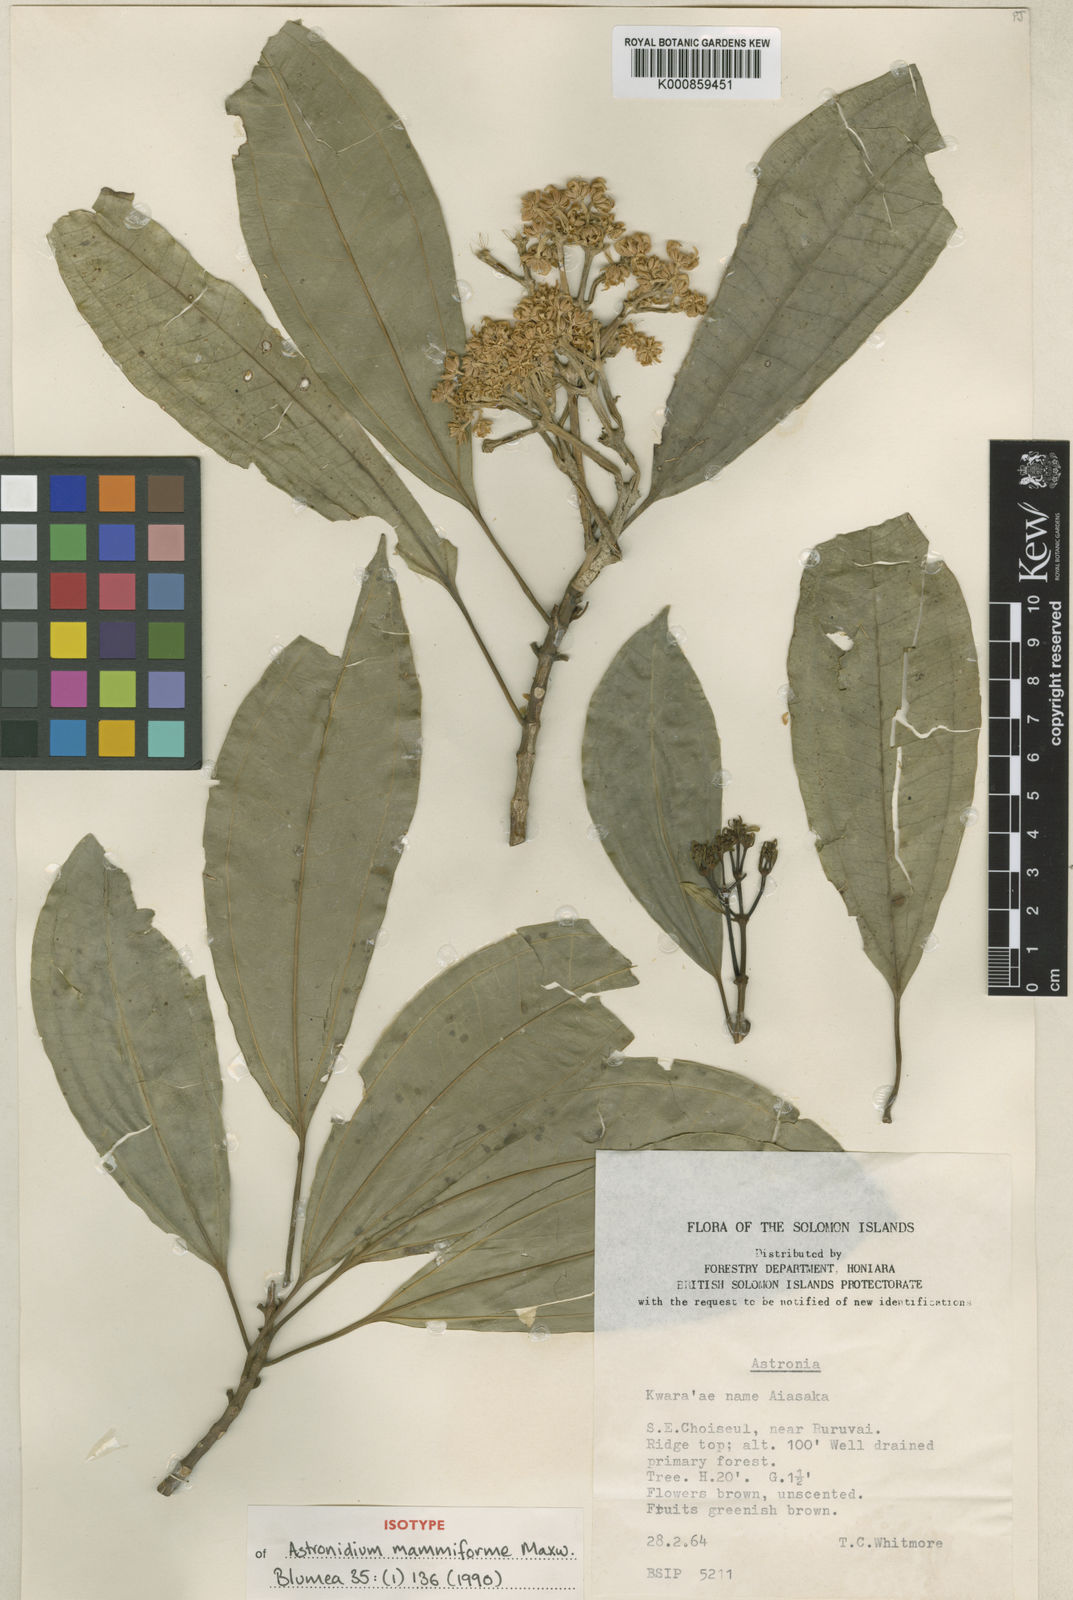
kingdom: Plantae
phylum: Tracheophyta
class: Magnoliopsida
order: Myrtales
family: Melastomataceae
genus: Astronidium
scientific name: Astronidium mammiforme
